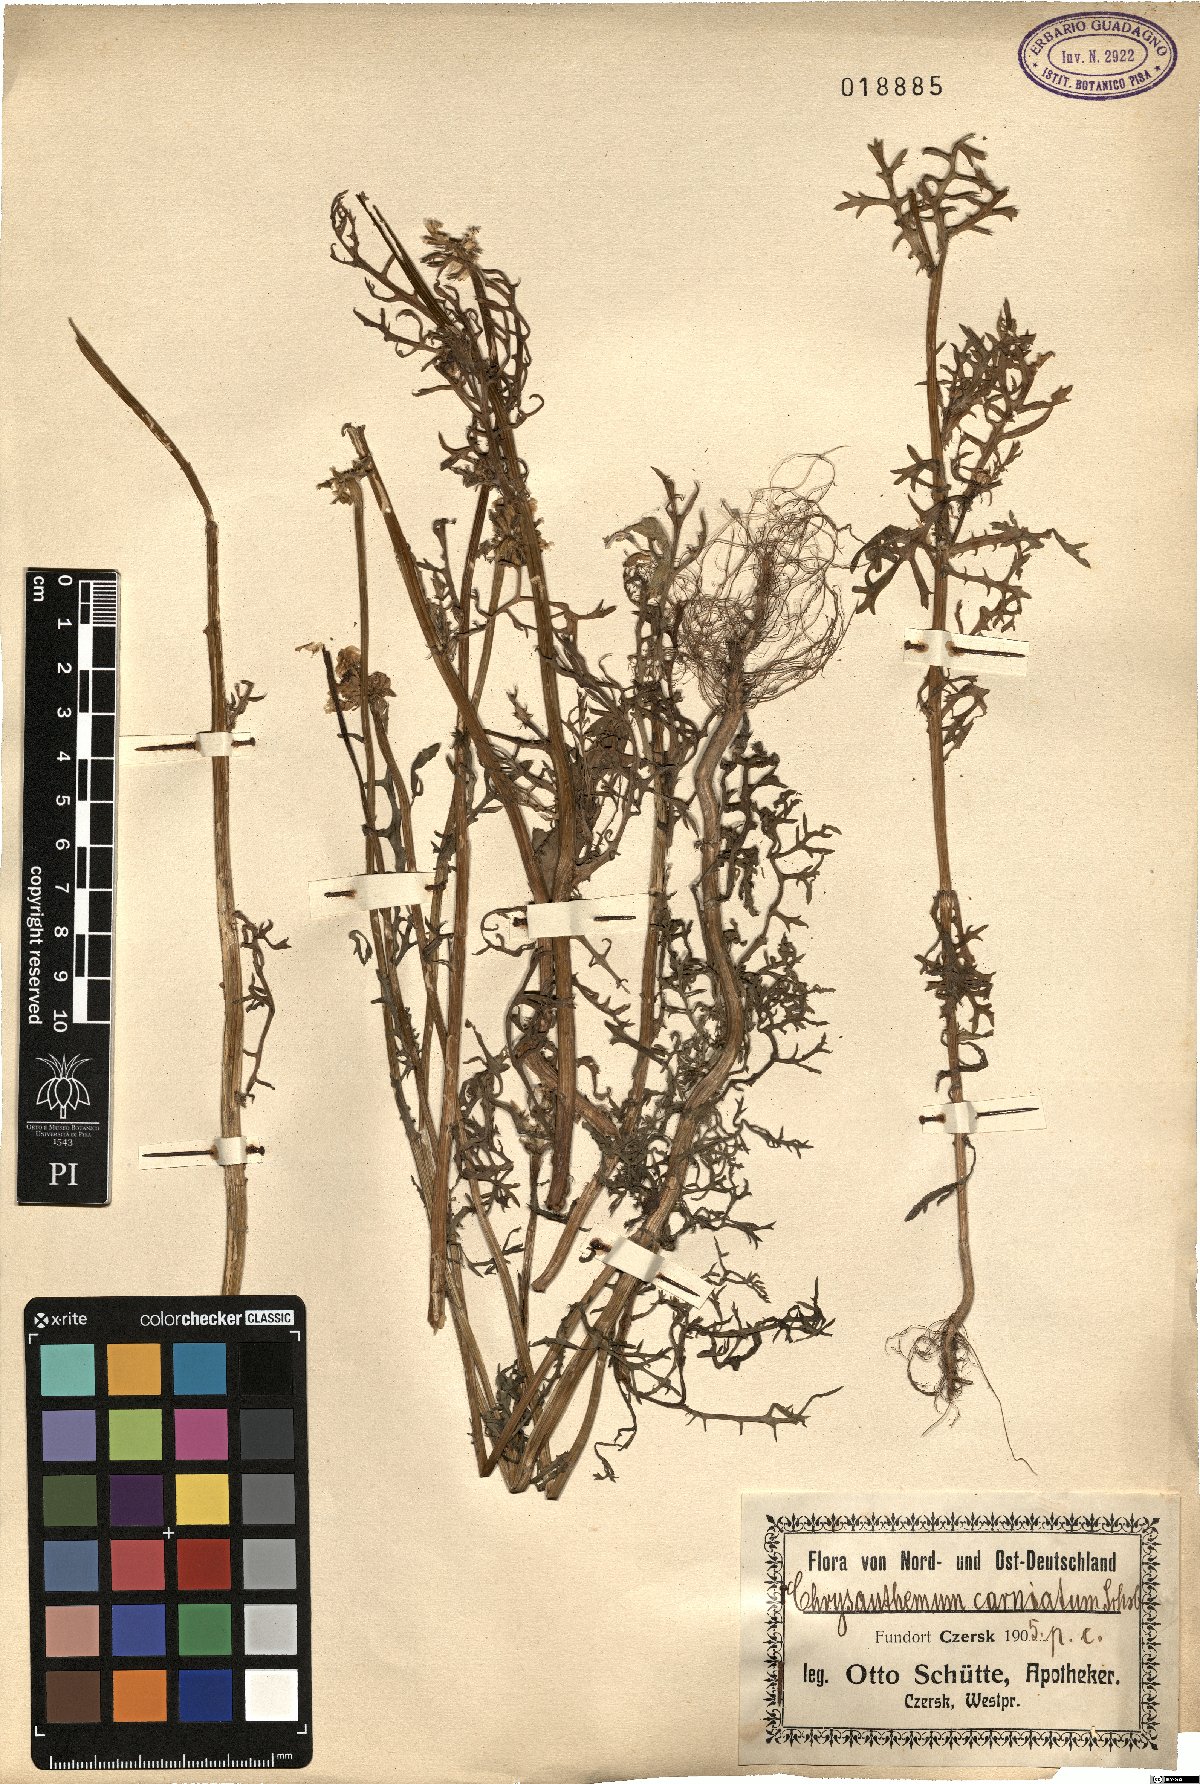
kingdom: Plantae
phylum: Tracheophyta
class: Magnoliopsida
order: Asterales
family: Asteraceae
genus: Glebionis
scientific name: Glebionis carinata
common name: Painted daisy
